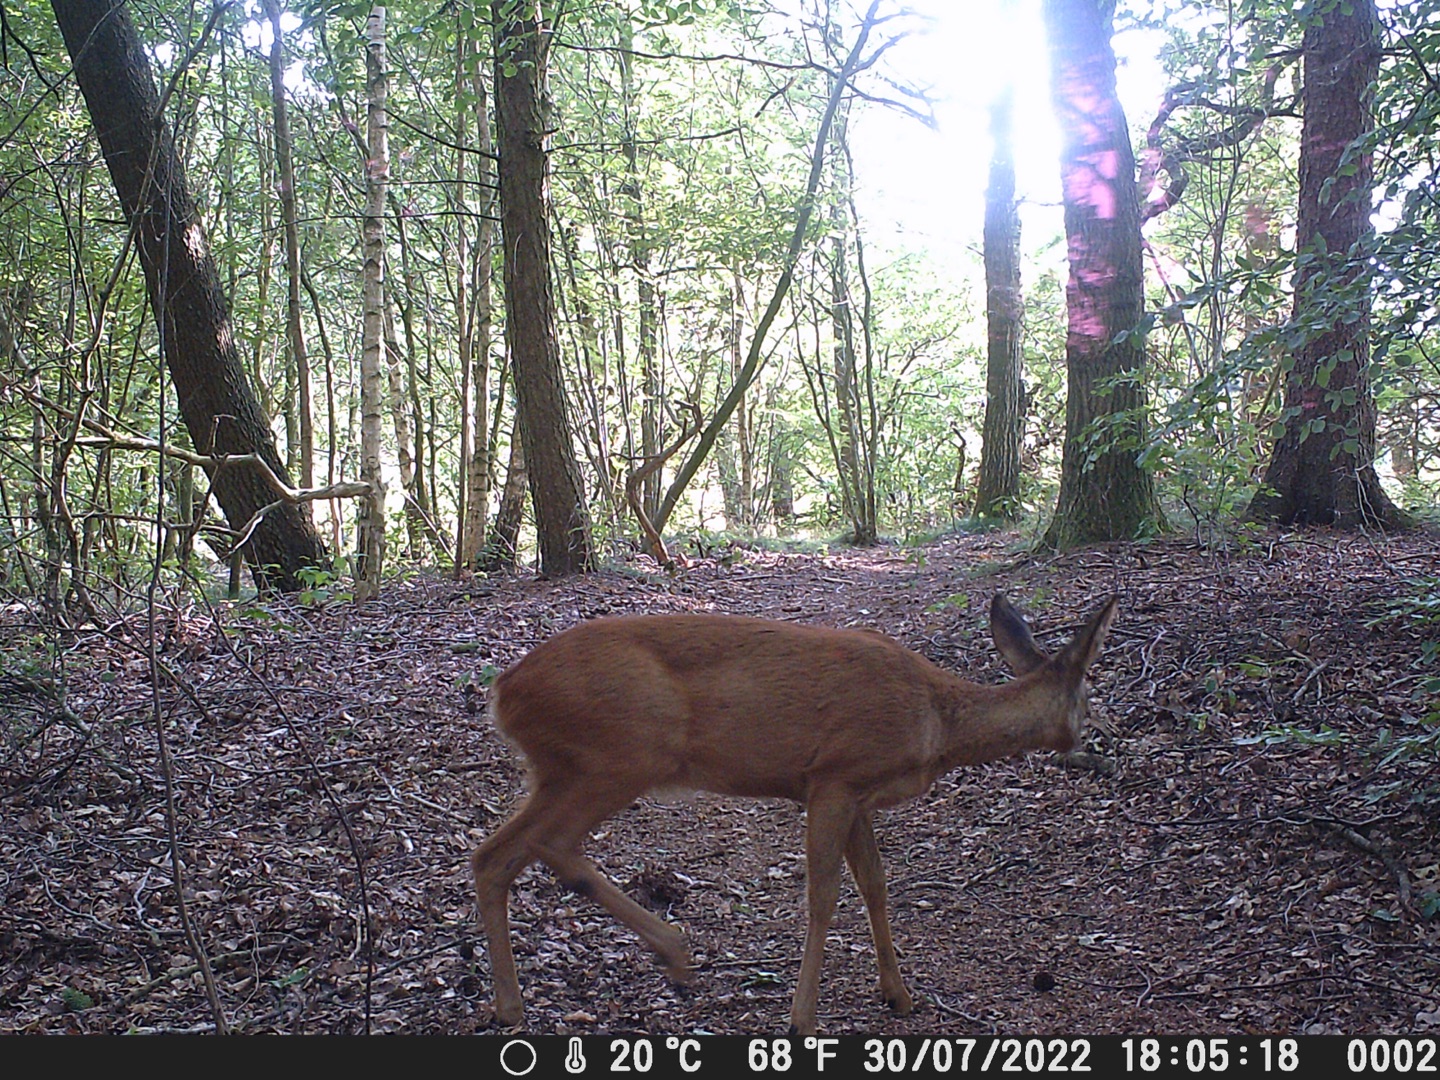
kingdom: Animalia
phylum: Chordata
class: Mammalia
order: Artiodactyla
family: Cervidae
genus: Capreolus
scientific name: Capreolus capreolus
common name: Rådyr
